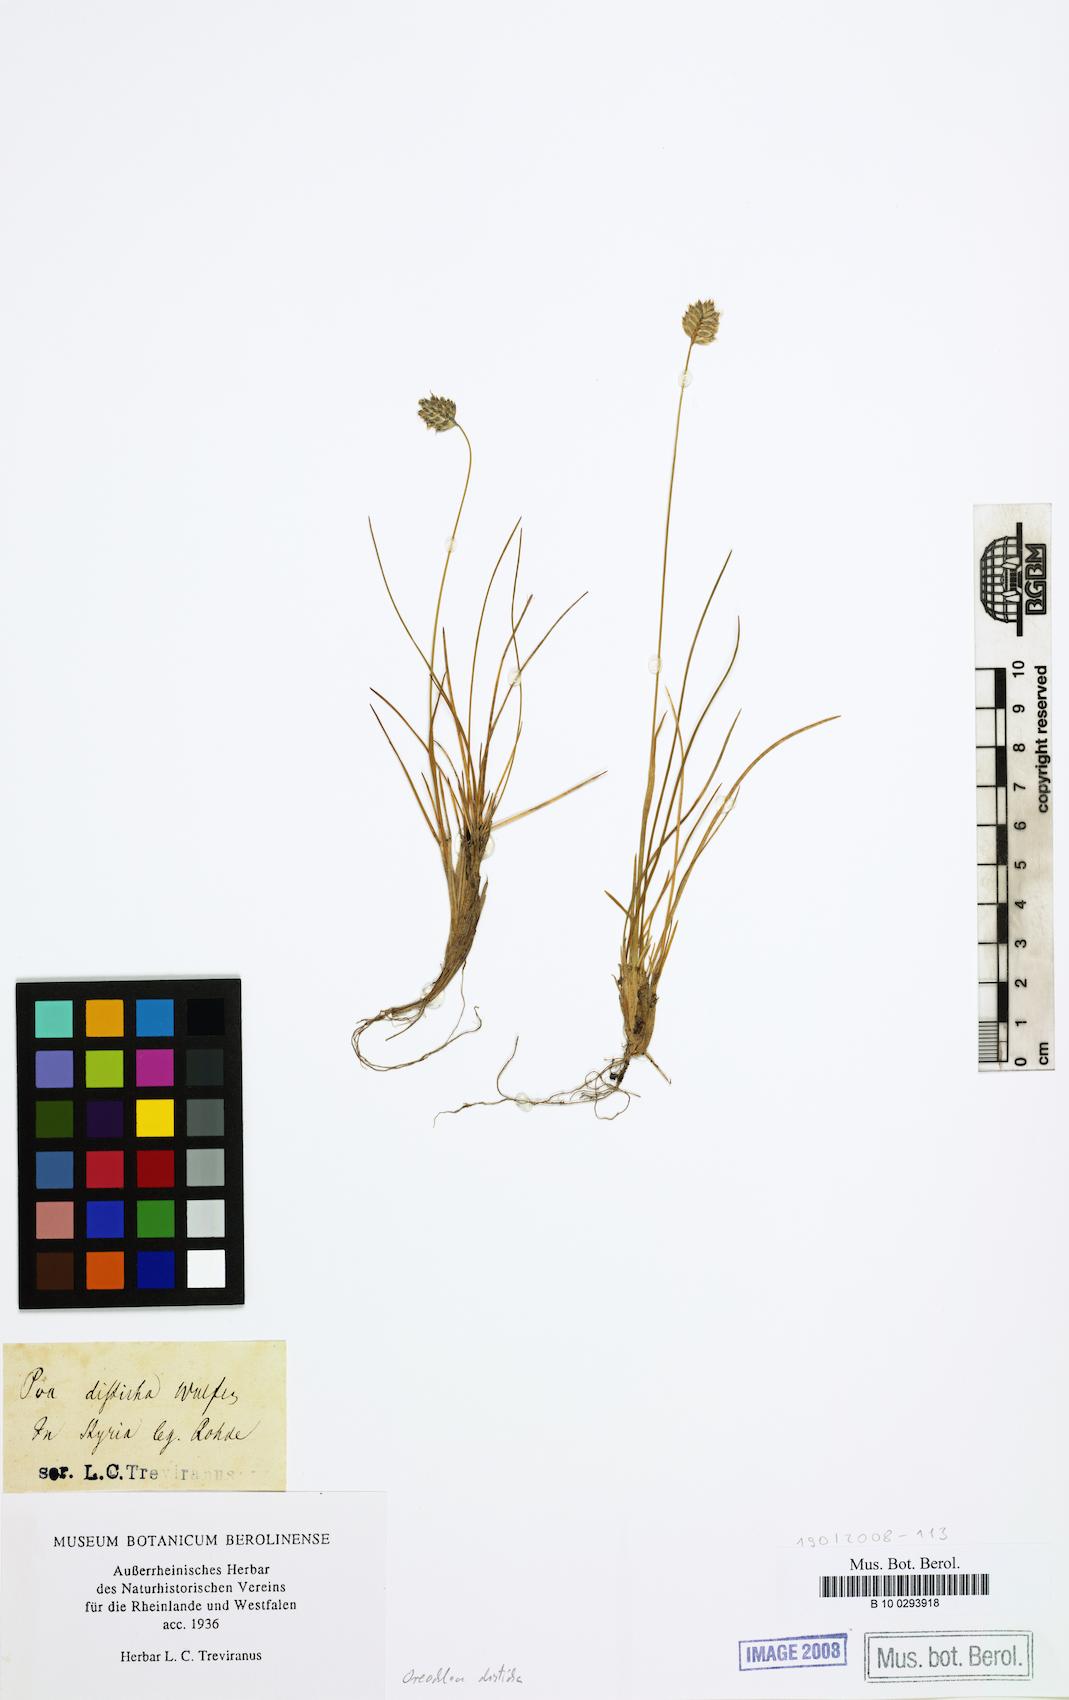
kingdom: Plantae
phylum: Tracheophyta
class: Liliopsida
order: Poales
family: Poaceae
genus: Oreochloa
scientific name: Oreochloa disticha
